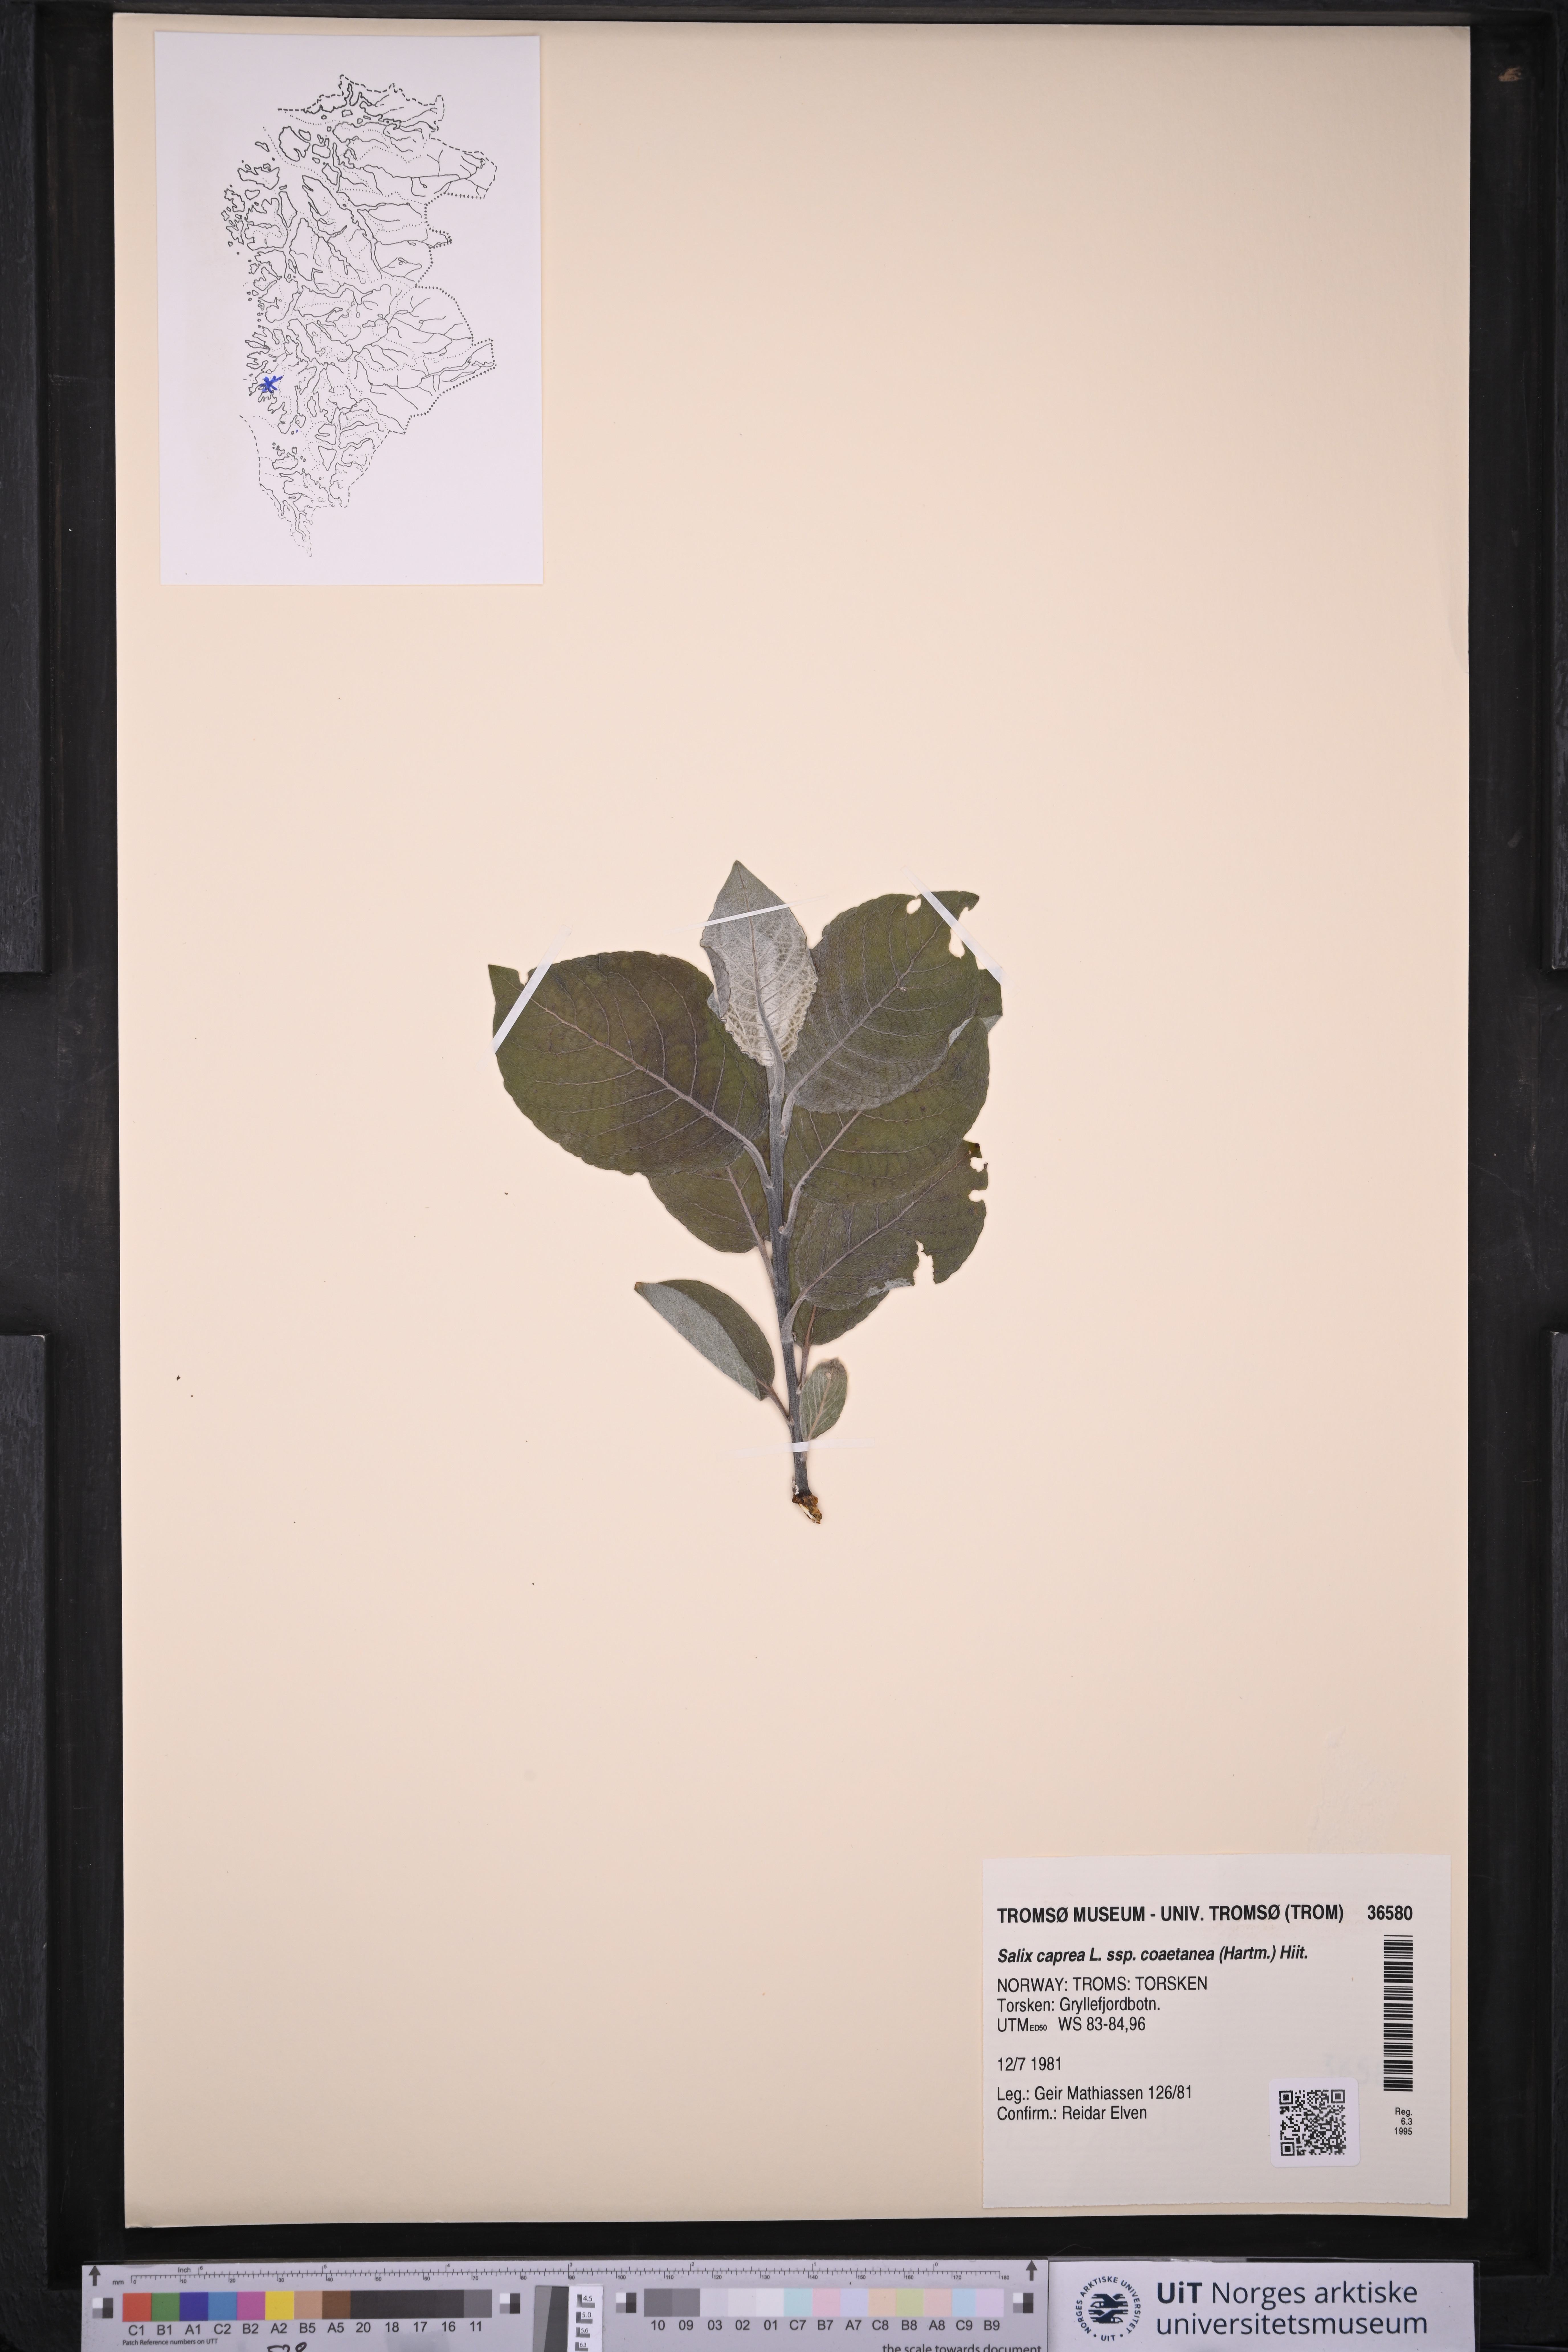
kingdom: Plantae
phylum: Tracheophyta
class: Magnoliopsida
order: Malpighiales
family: Salicaceae
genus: Salix
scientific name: Salix caprea
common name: Goat willow
